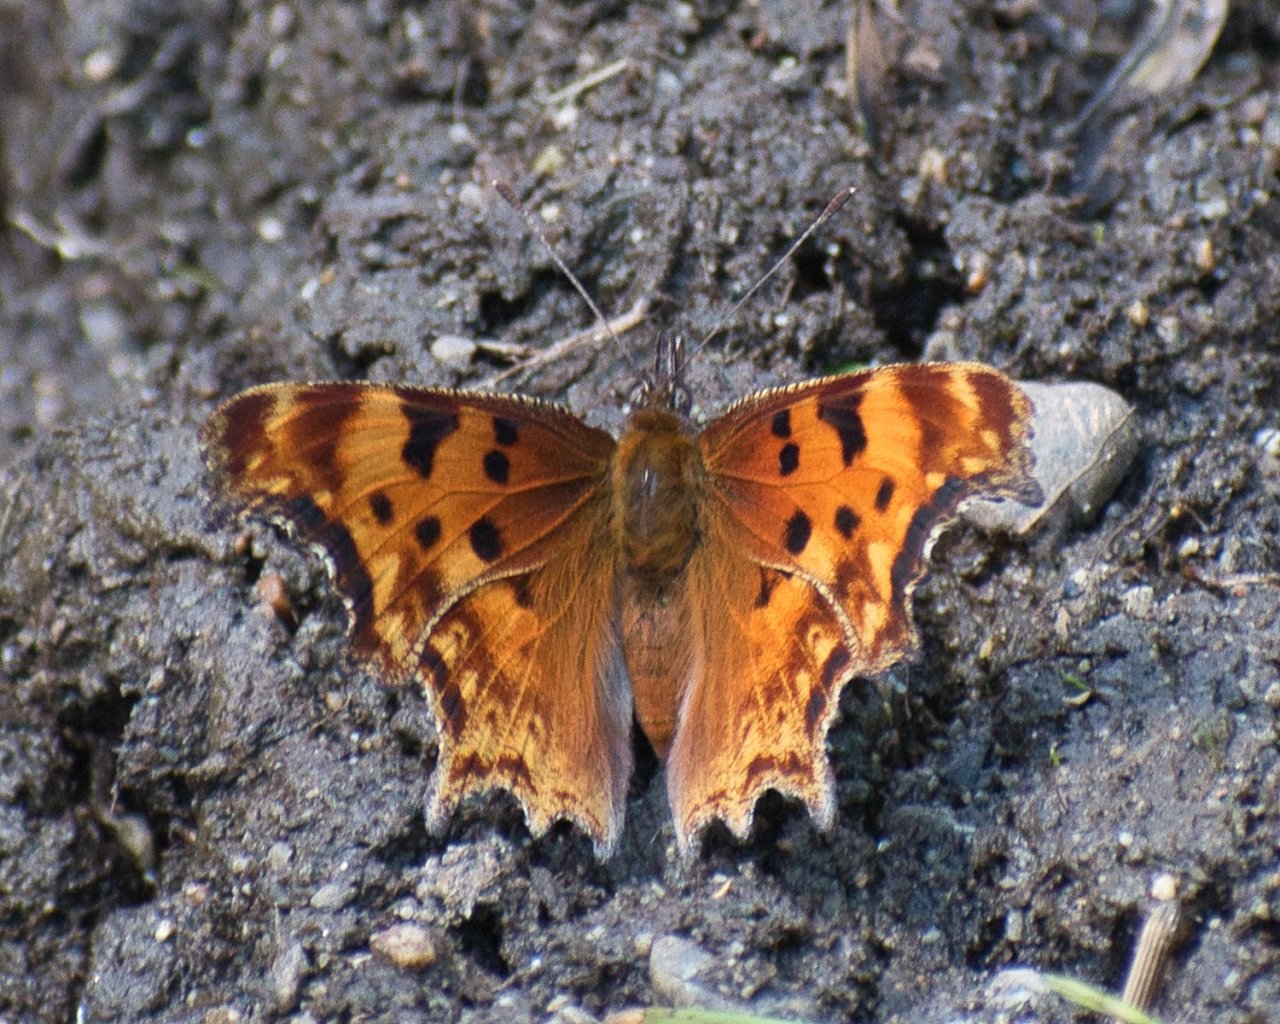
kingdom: Animalia
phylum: Arthropoda
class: Insecta
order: Lepidoptera
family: Nymphalidae
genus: Polygonia
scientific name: Polygonia gracilis
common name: Hoary Comma
